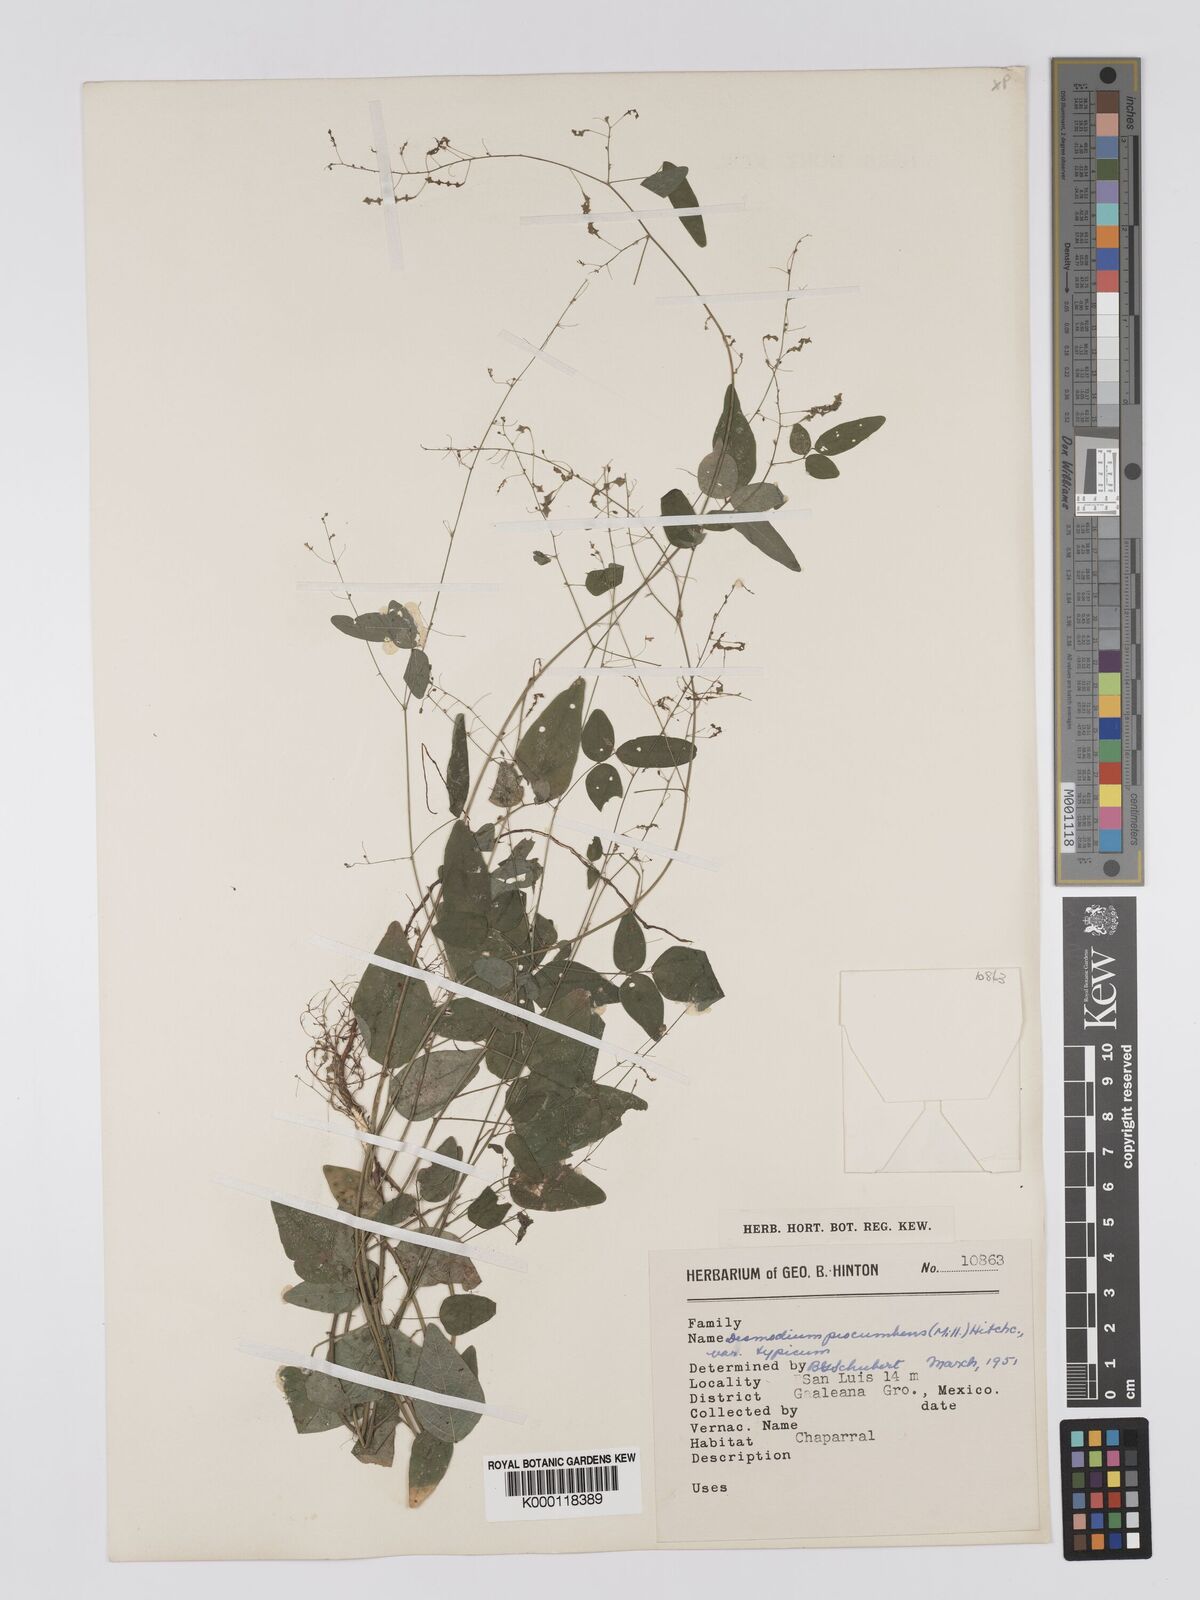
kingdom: Plantae
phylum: Tracheophyta
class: Magnoliopsida
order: Fabales
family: Fabaceae
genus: Desmodium
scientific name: Desmodium procumbens
